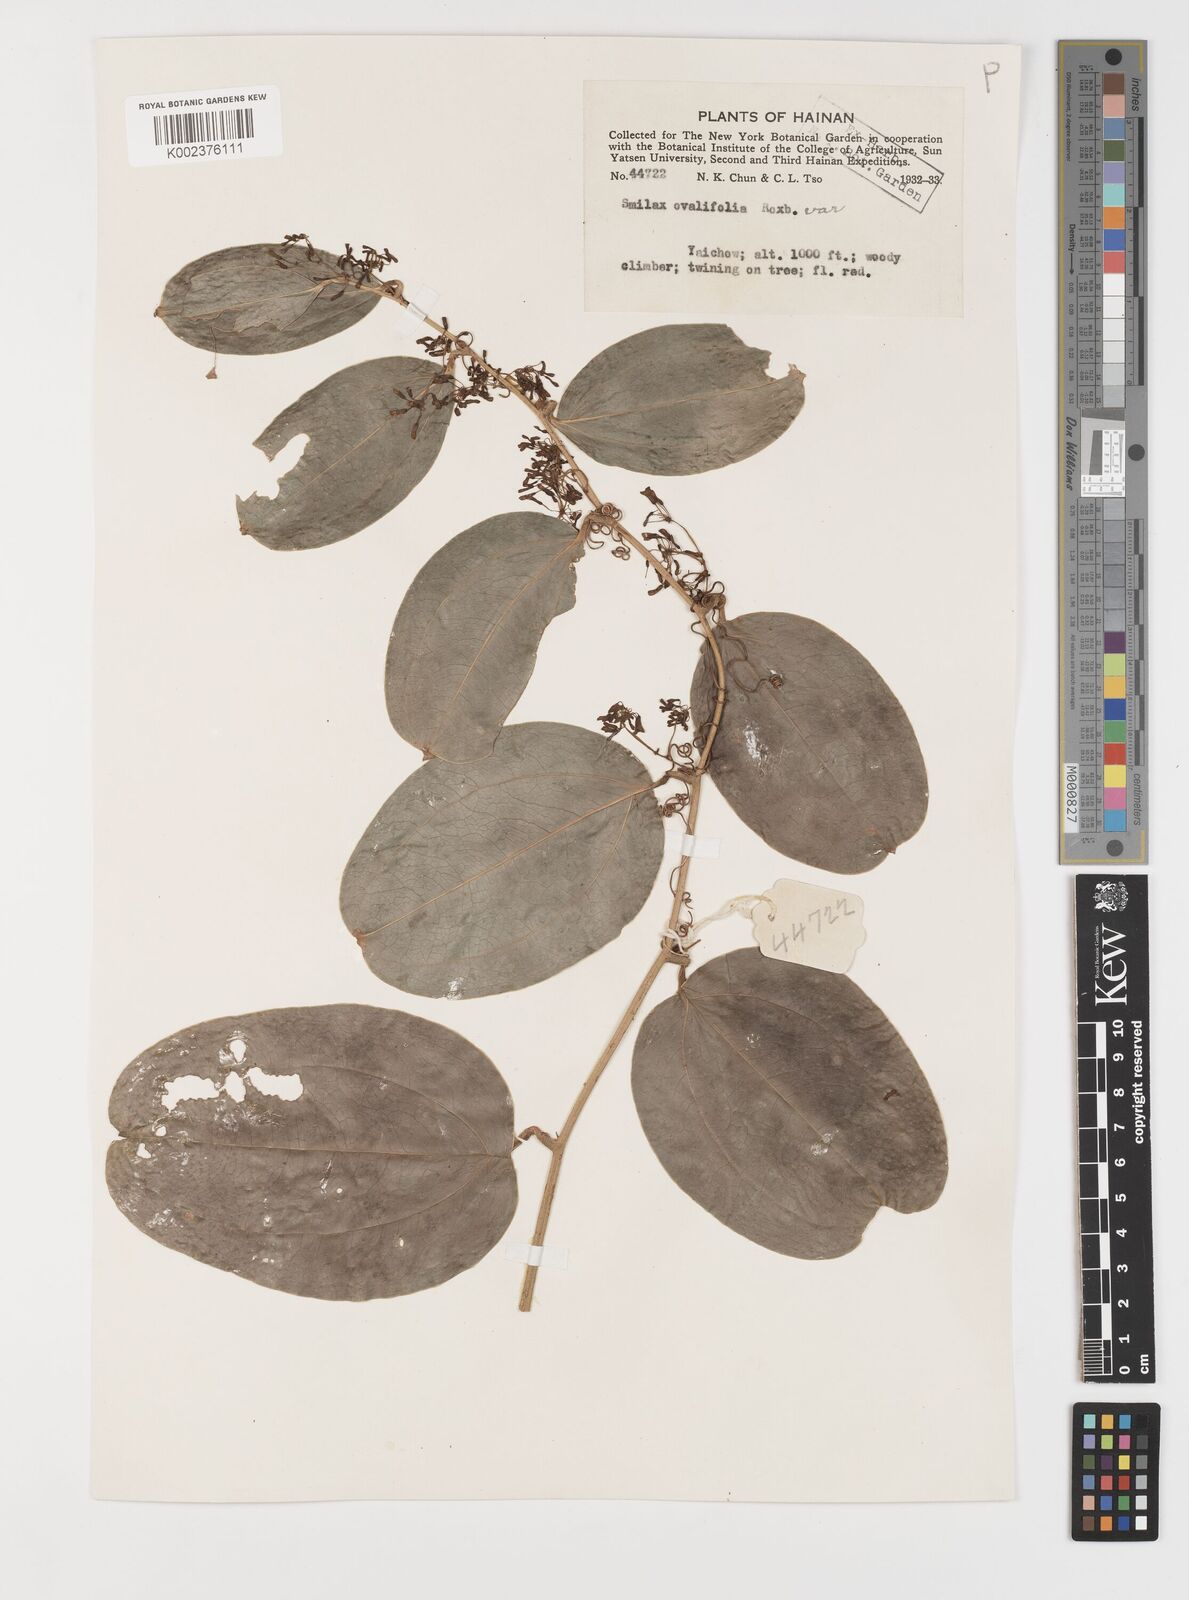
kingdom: Plantae
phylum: Tracheophyta
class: Liliopsida
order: Liliales
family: Smilacaceae
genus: Smilax
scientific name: Smilax ovalifolia
